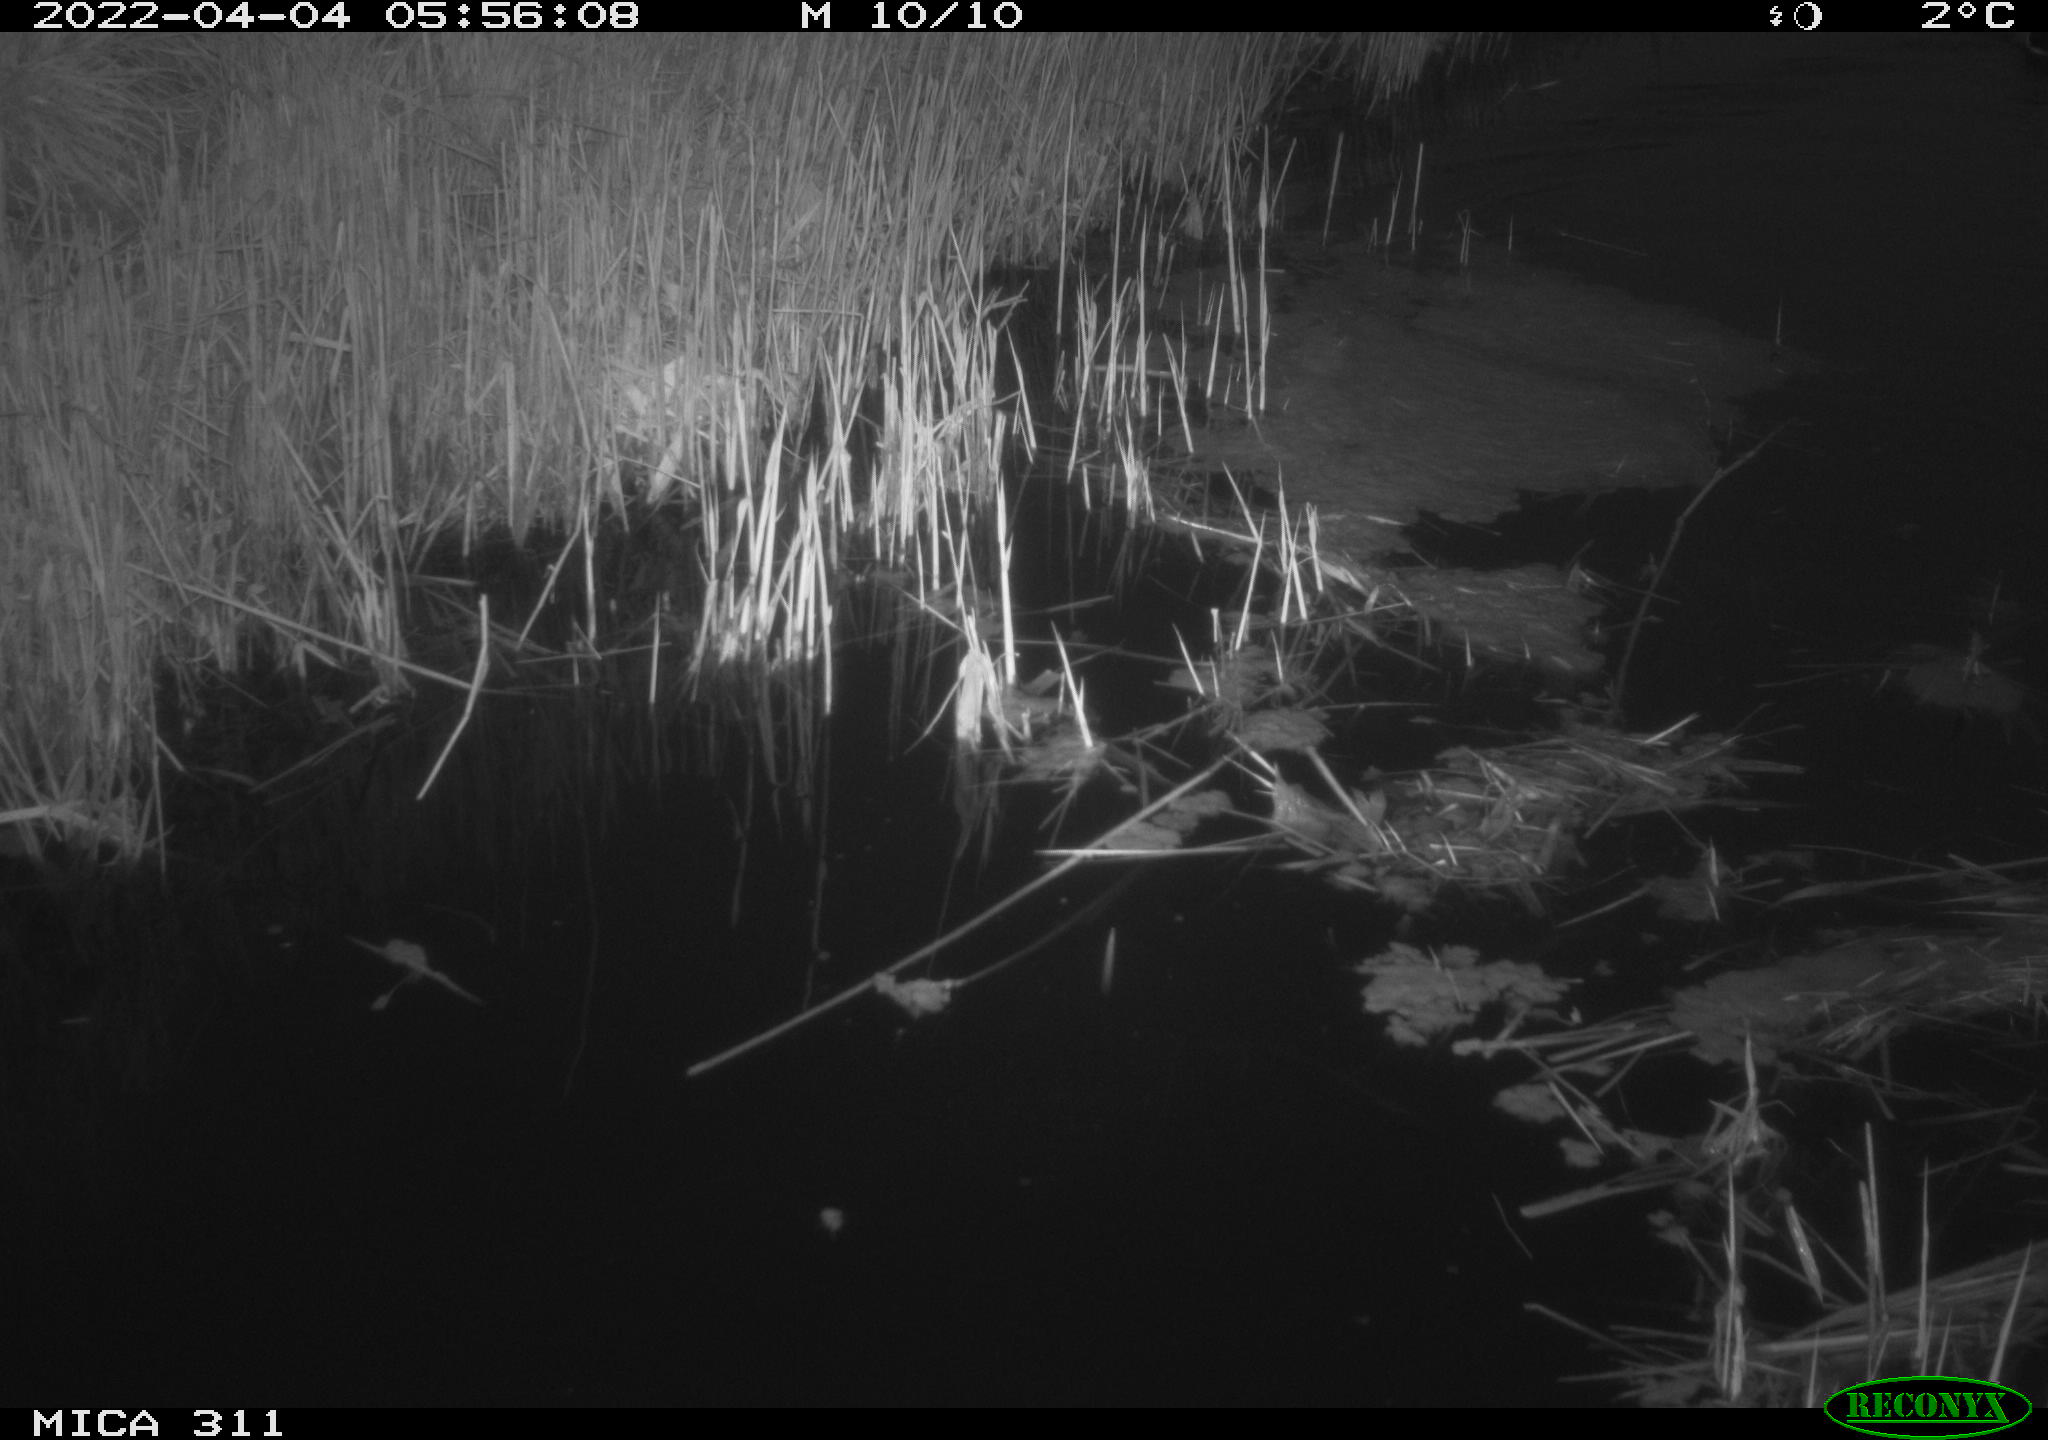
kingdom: Animalia
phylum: Chordata
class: Aves
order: Anseriformes
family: Anatidae
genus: Anas
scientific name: Anas platyrhynchos
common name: Mallard
